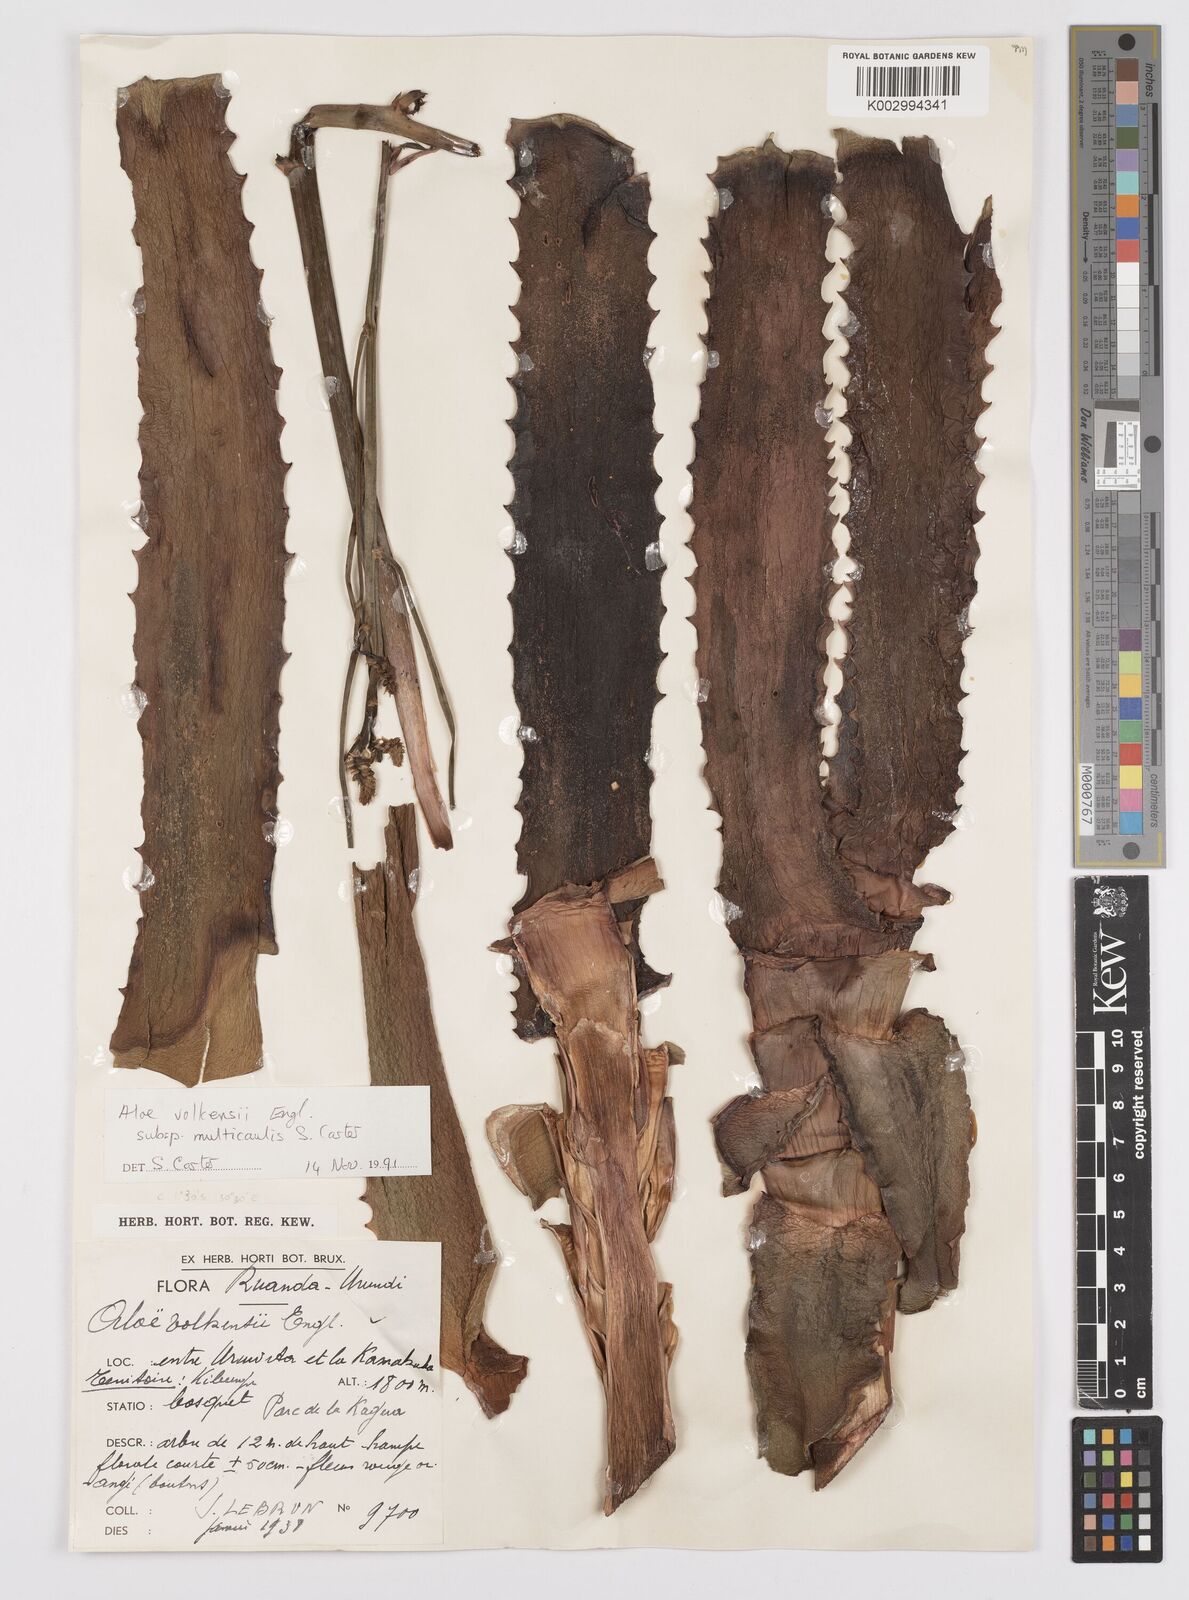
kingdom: Plantae
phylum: Tracheophyta
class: Liliopsida
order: Asparagales
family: Asphodelaceae
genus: Aloe
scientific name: Aloe volkensii
